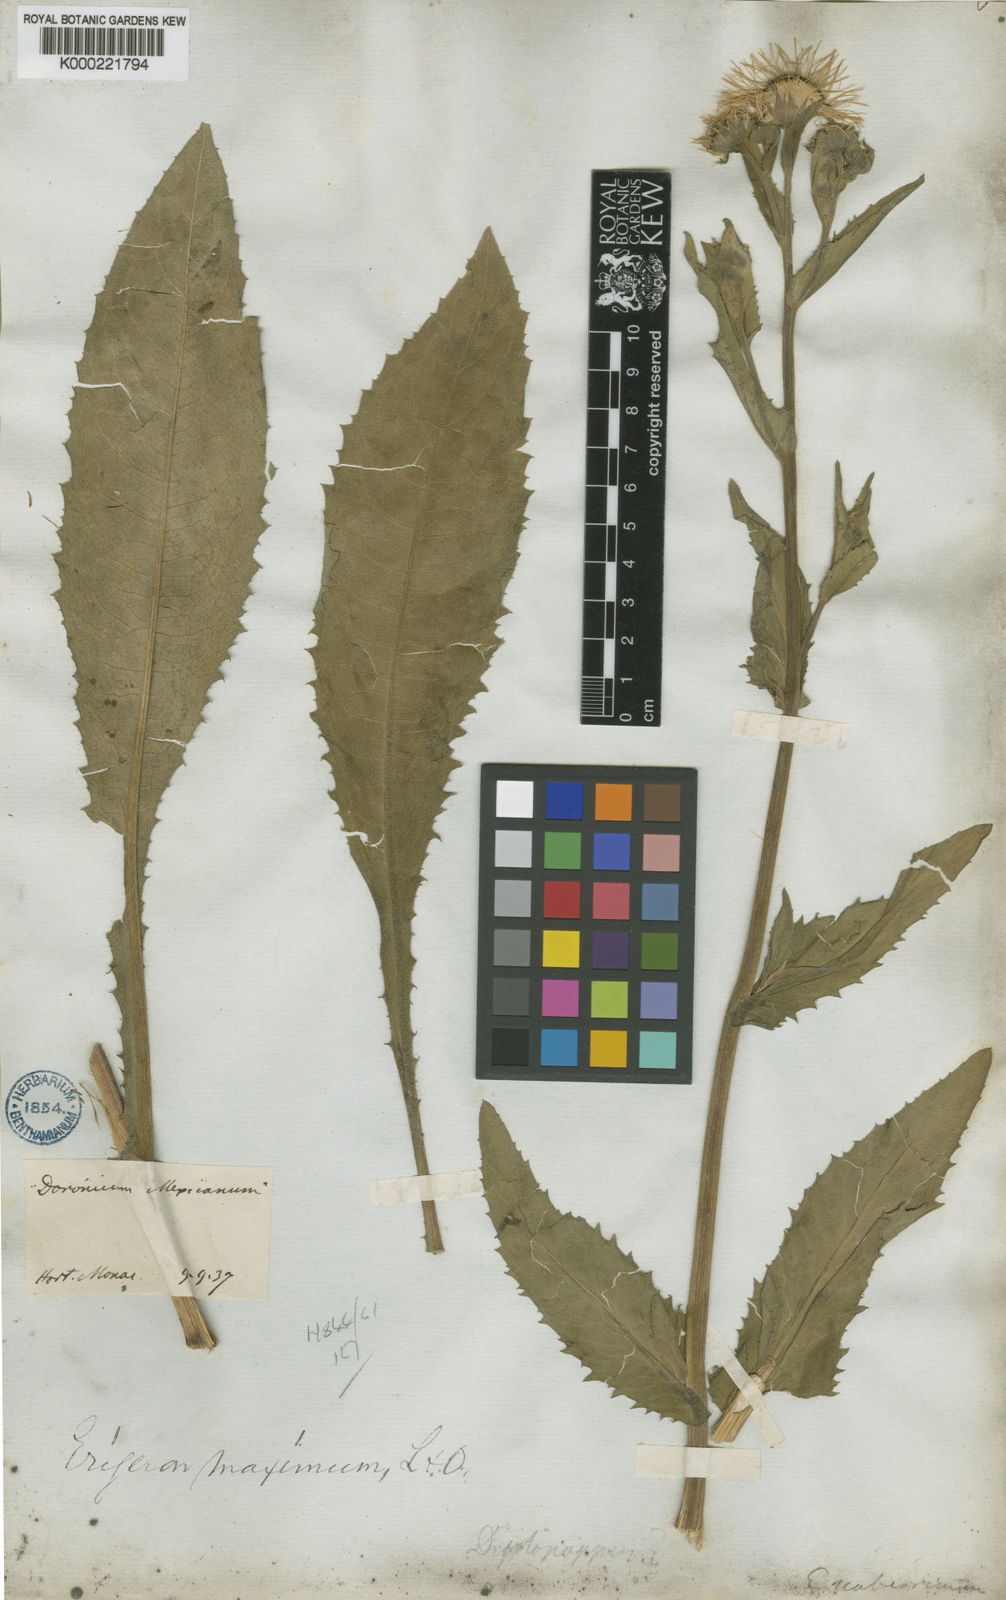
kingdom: Plantae
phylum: Tracheophyta
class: Magnoliopsida
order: Asterales
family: Asteraceae
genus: Leptostelma
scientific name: Leptostelma maxima
